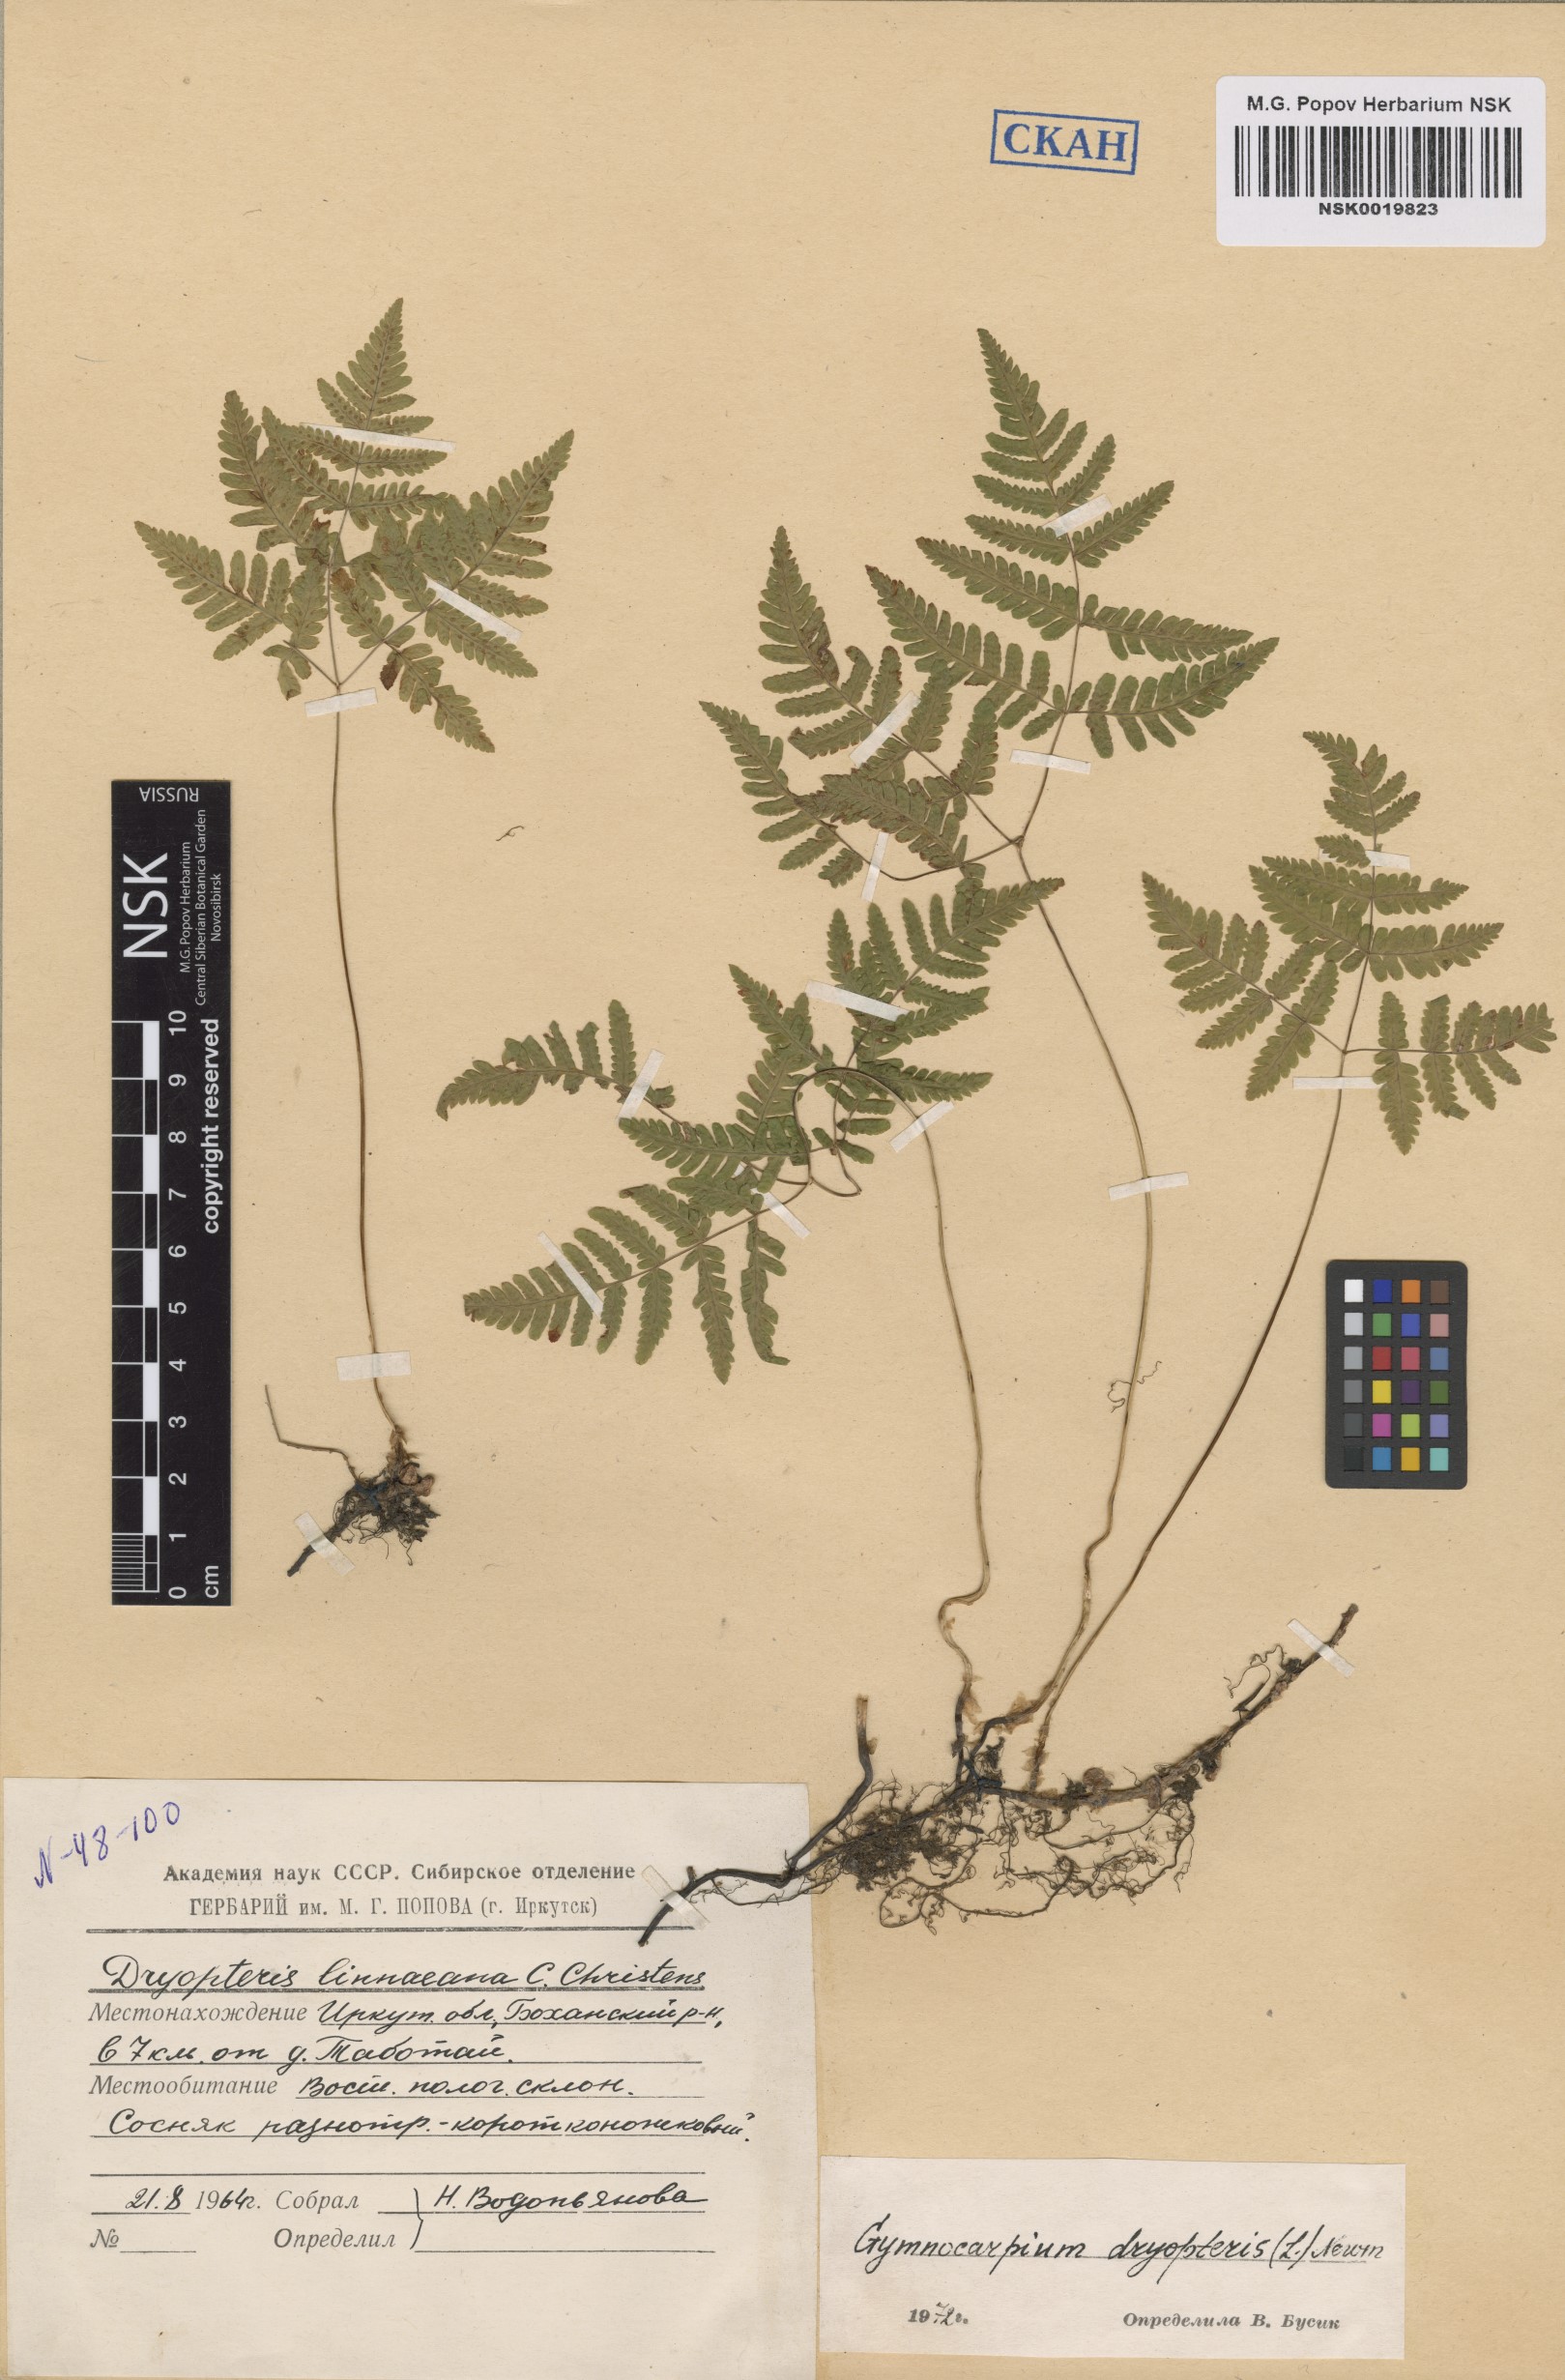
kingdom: Plantae
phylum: Tracheophyta
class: Polypodiopsida
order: Polypodiales
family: Cystopteridaceae
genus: Gymnocarpium
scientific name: Gymnocarpium dryopteris
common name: Oak fern
